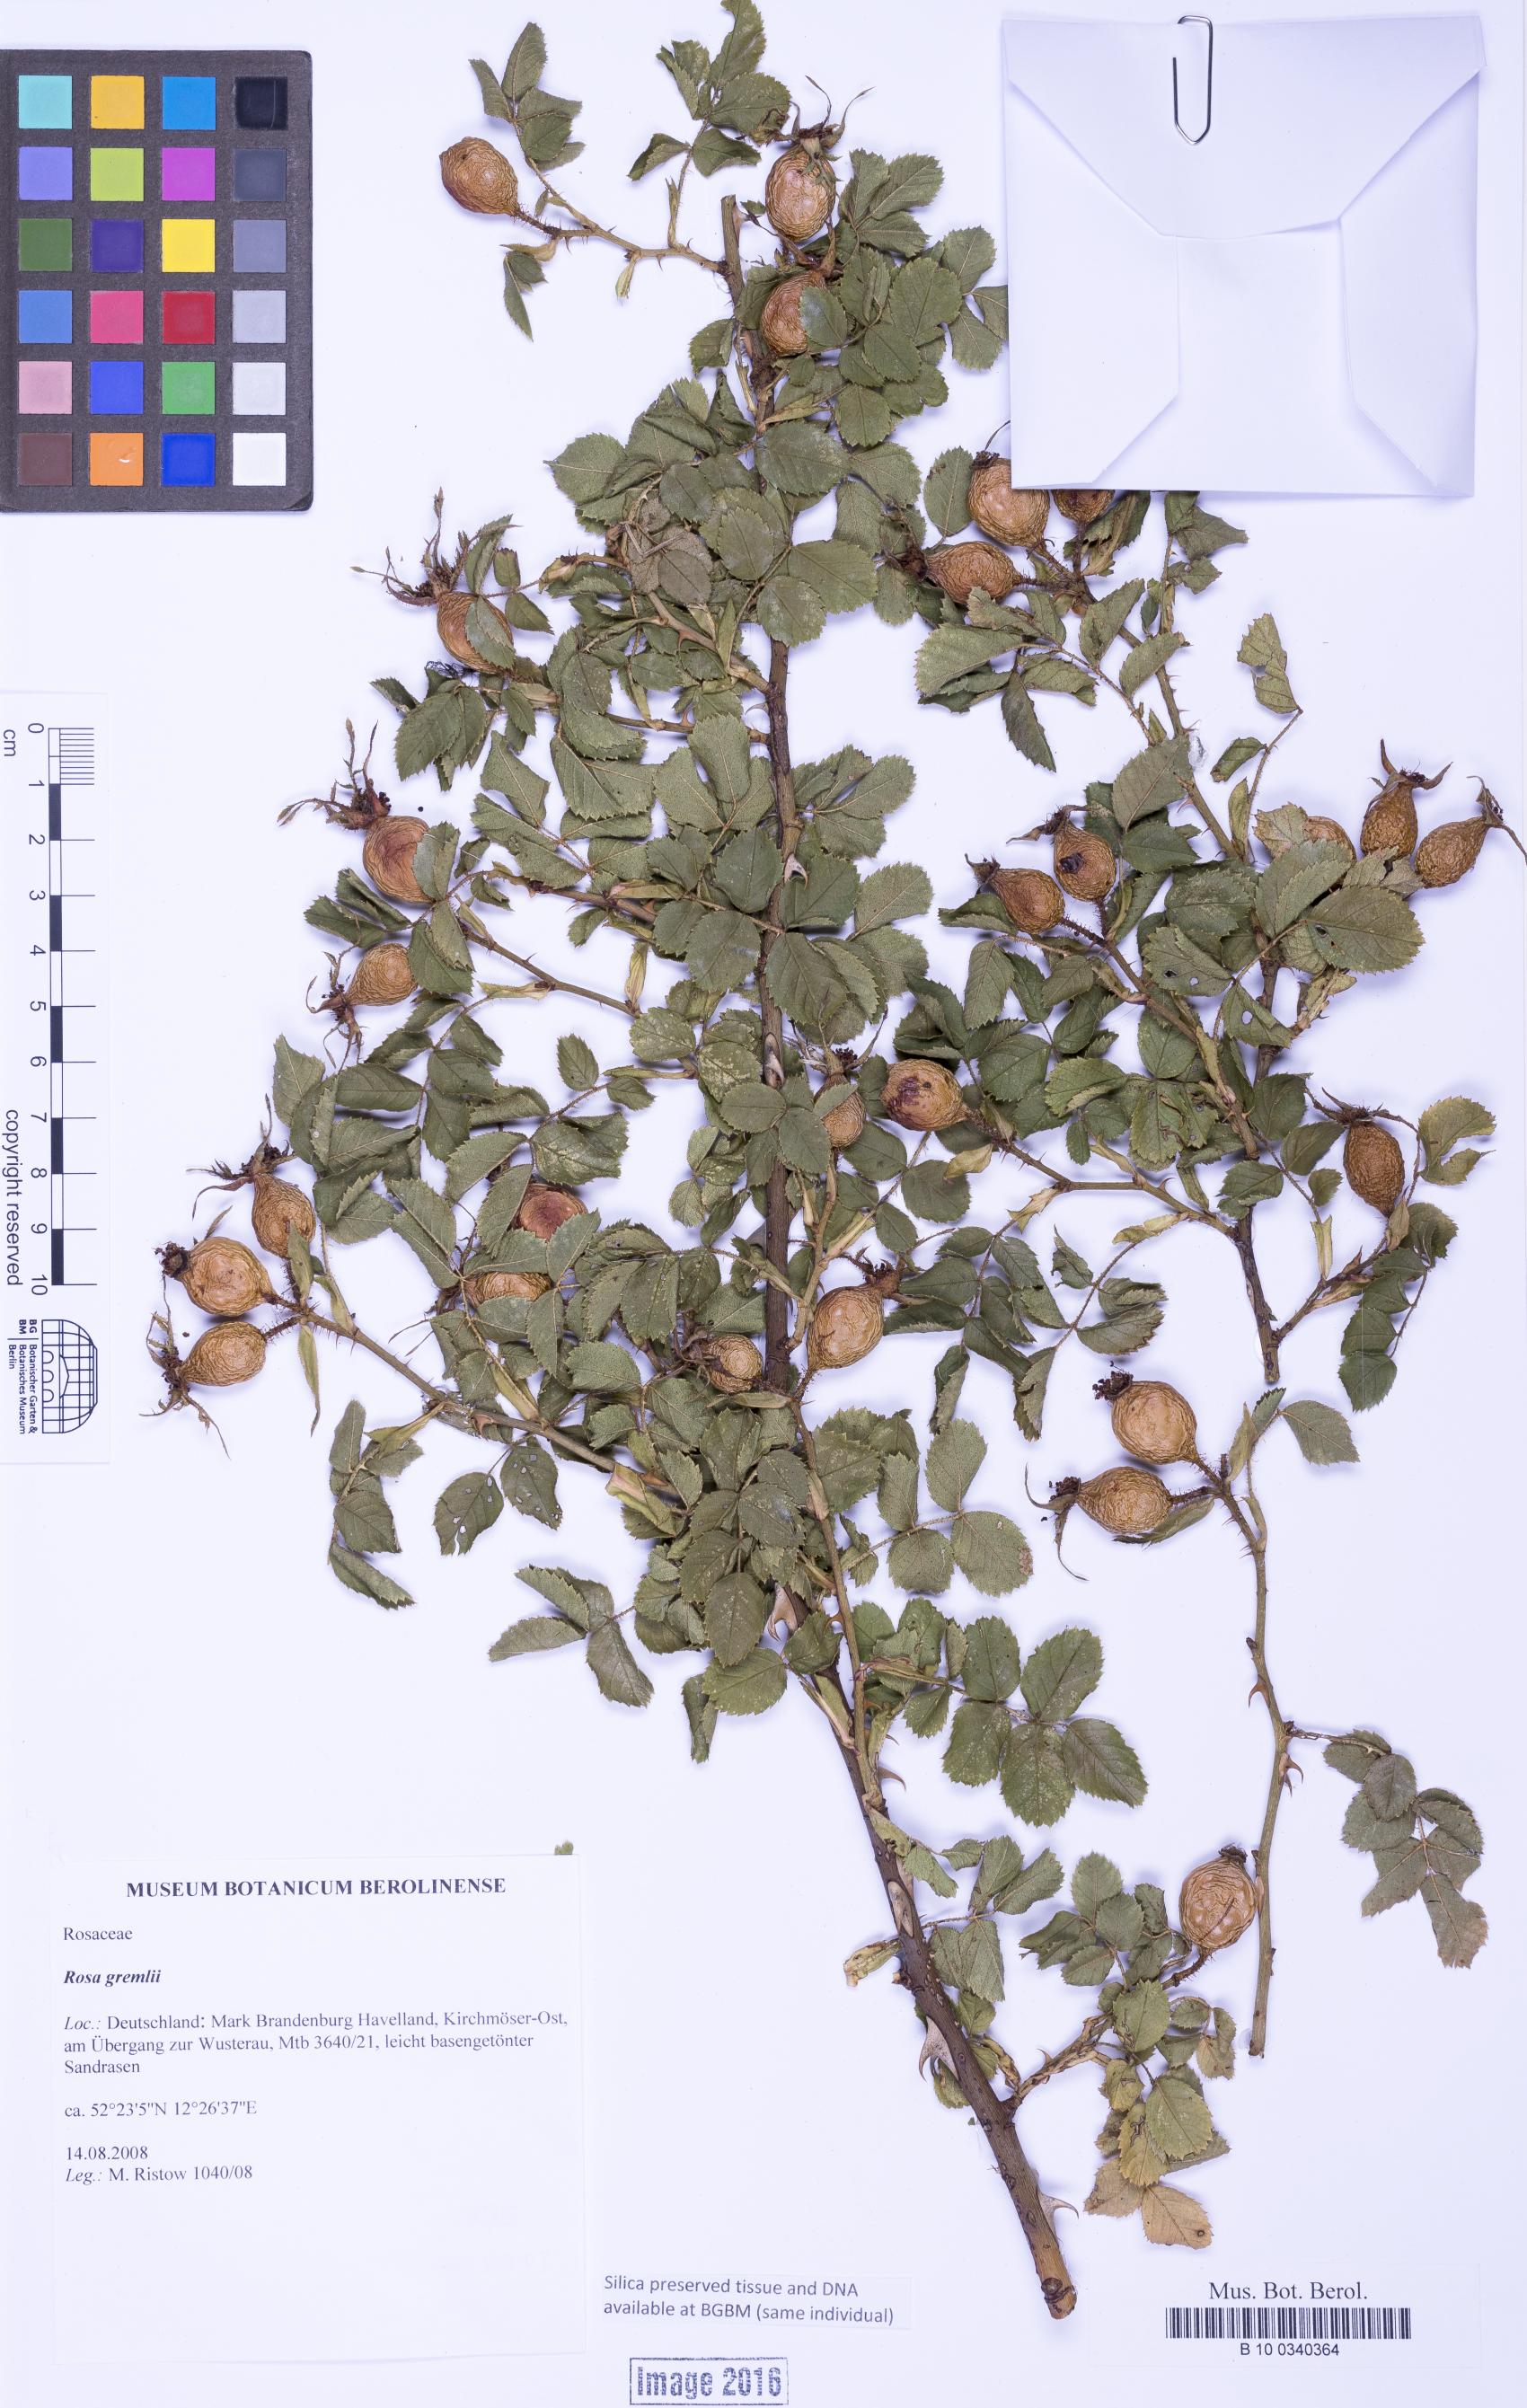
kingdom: Plantae
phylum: Tracheophyta
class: Magnoliopsida
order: Rosales
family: Rosaceae
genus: Rosa
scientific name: Rosa rubiginosa
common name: Sweet-briar
